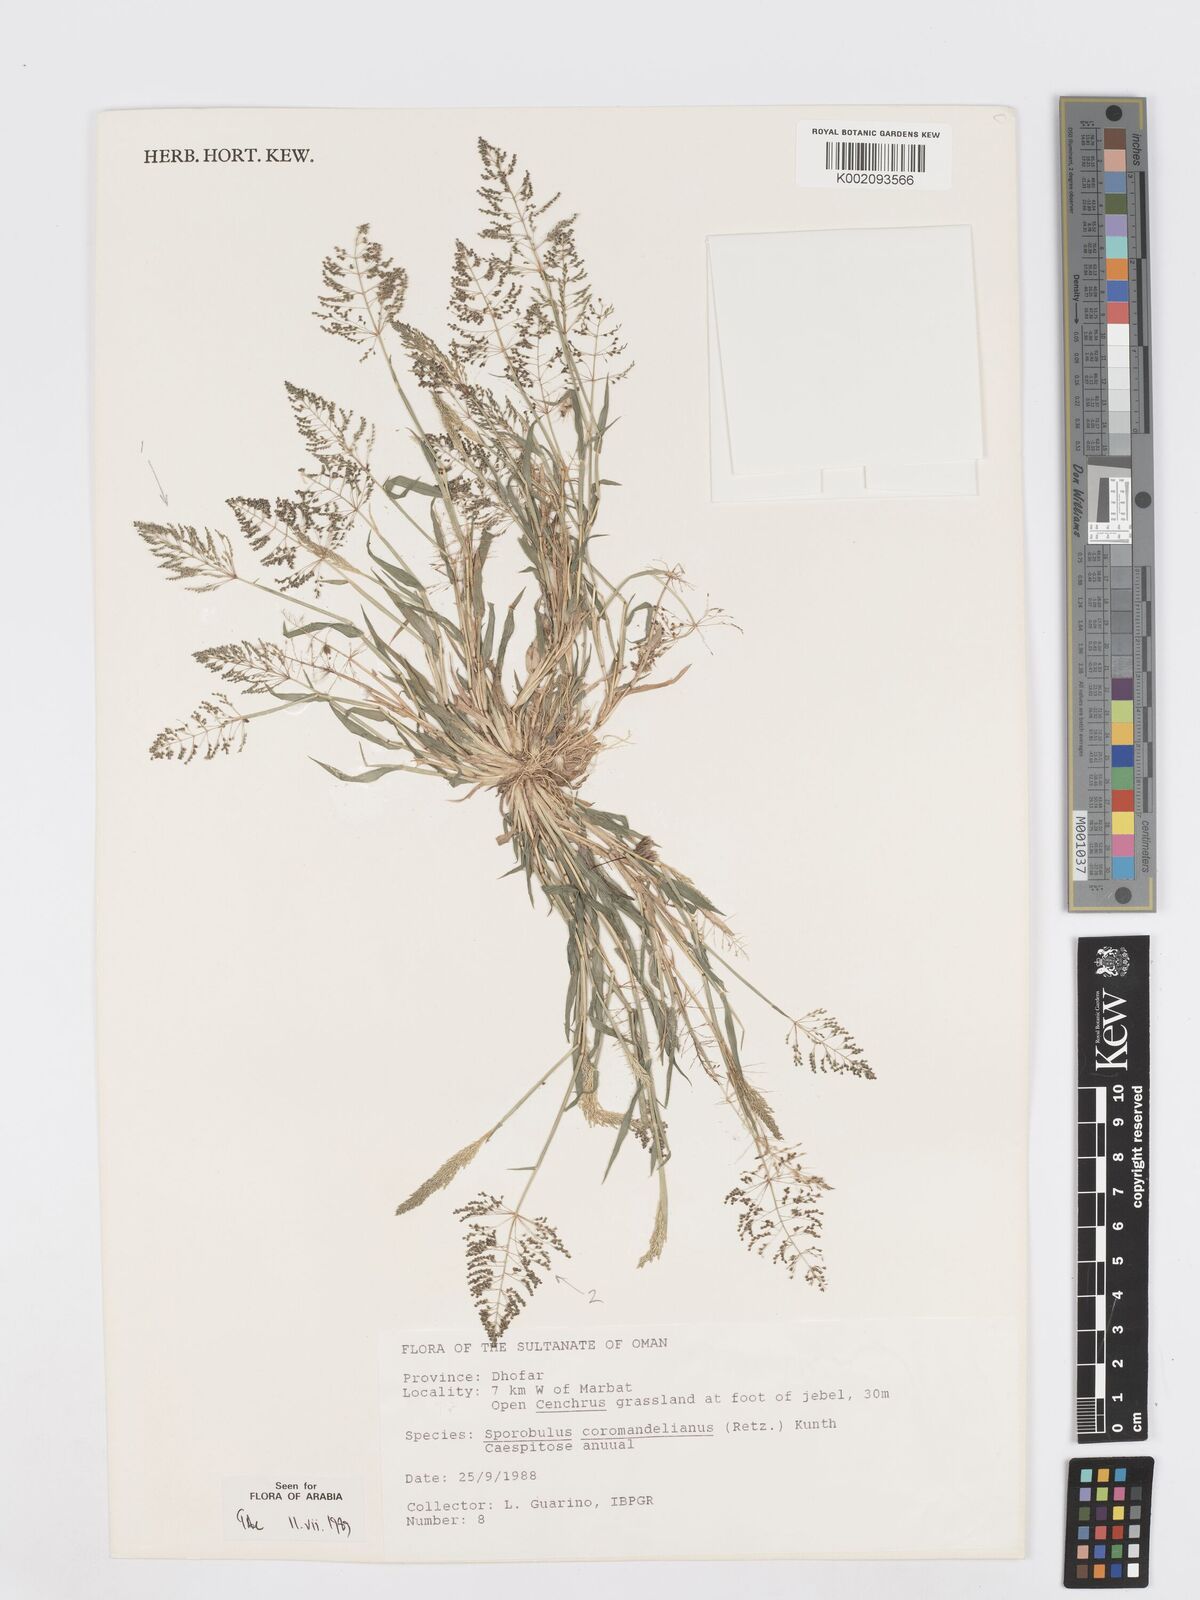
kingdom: Plantae
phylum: Tracheophyta
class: Liliopsida
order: Poales
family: Poaceae
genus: Sporobolus
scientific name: Sporobolus coromandelianus
